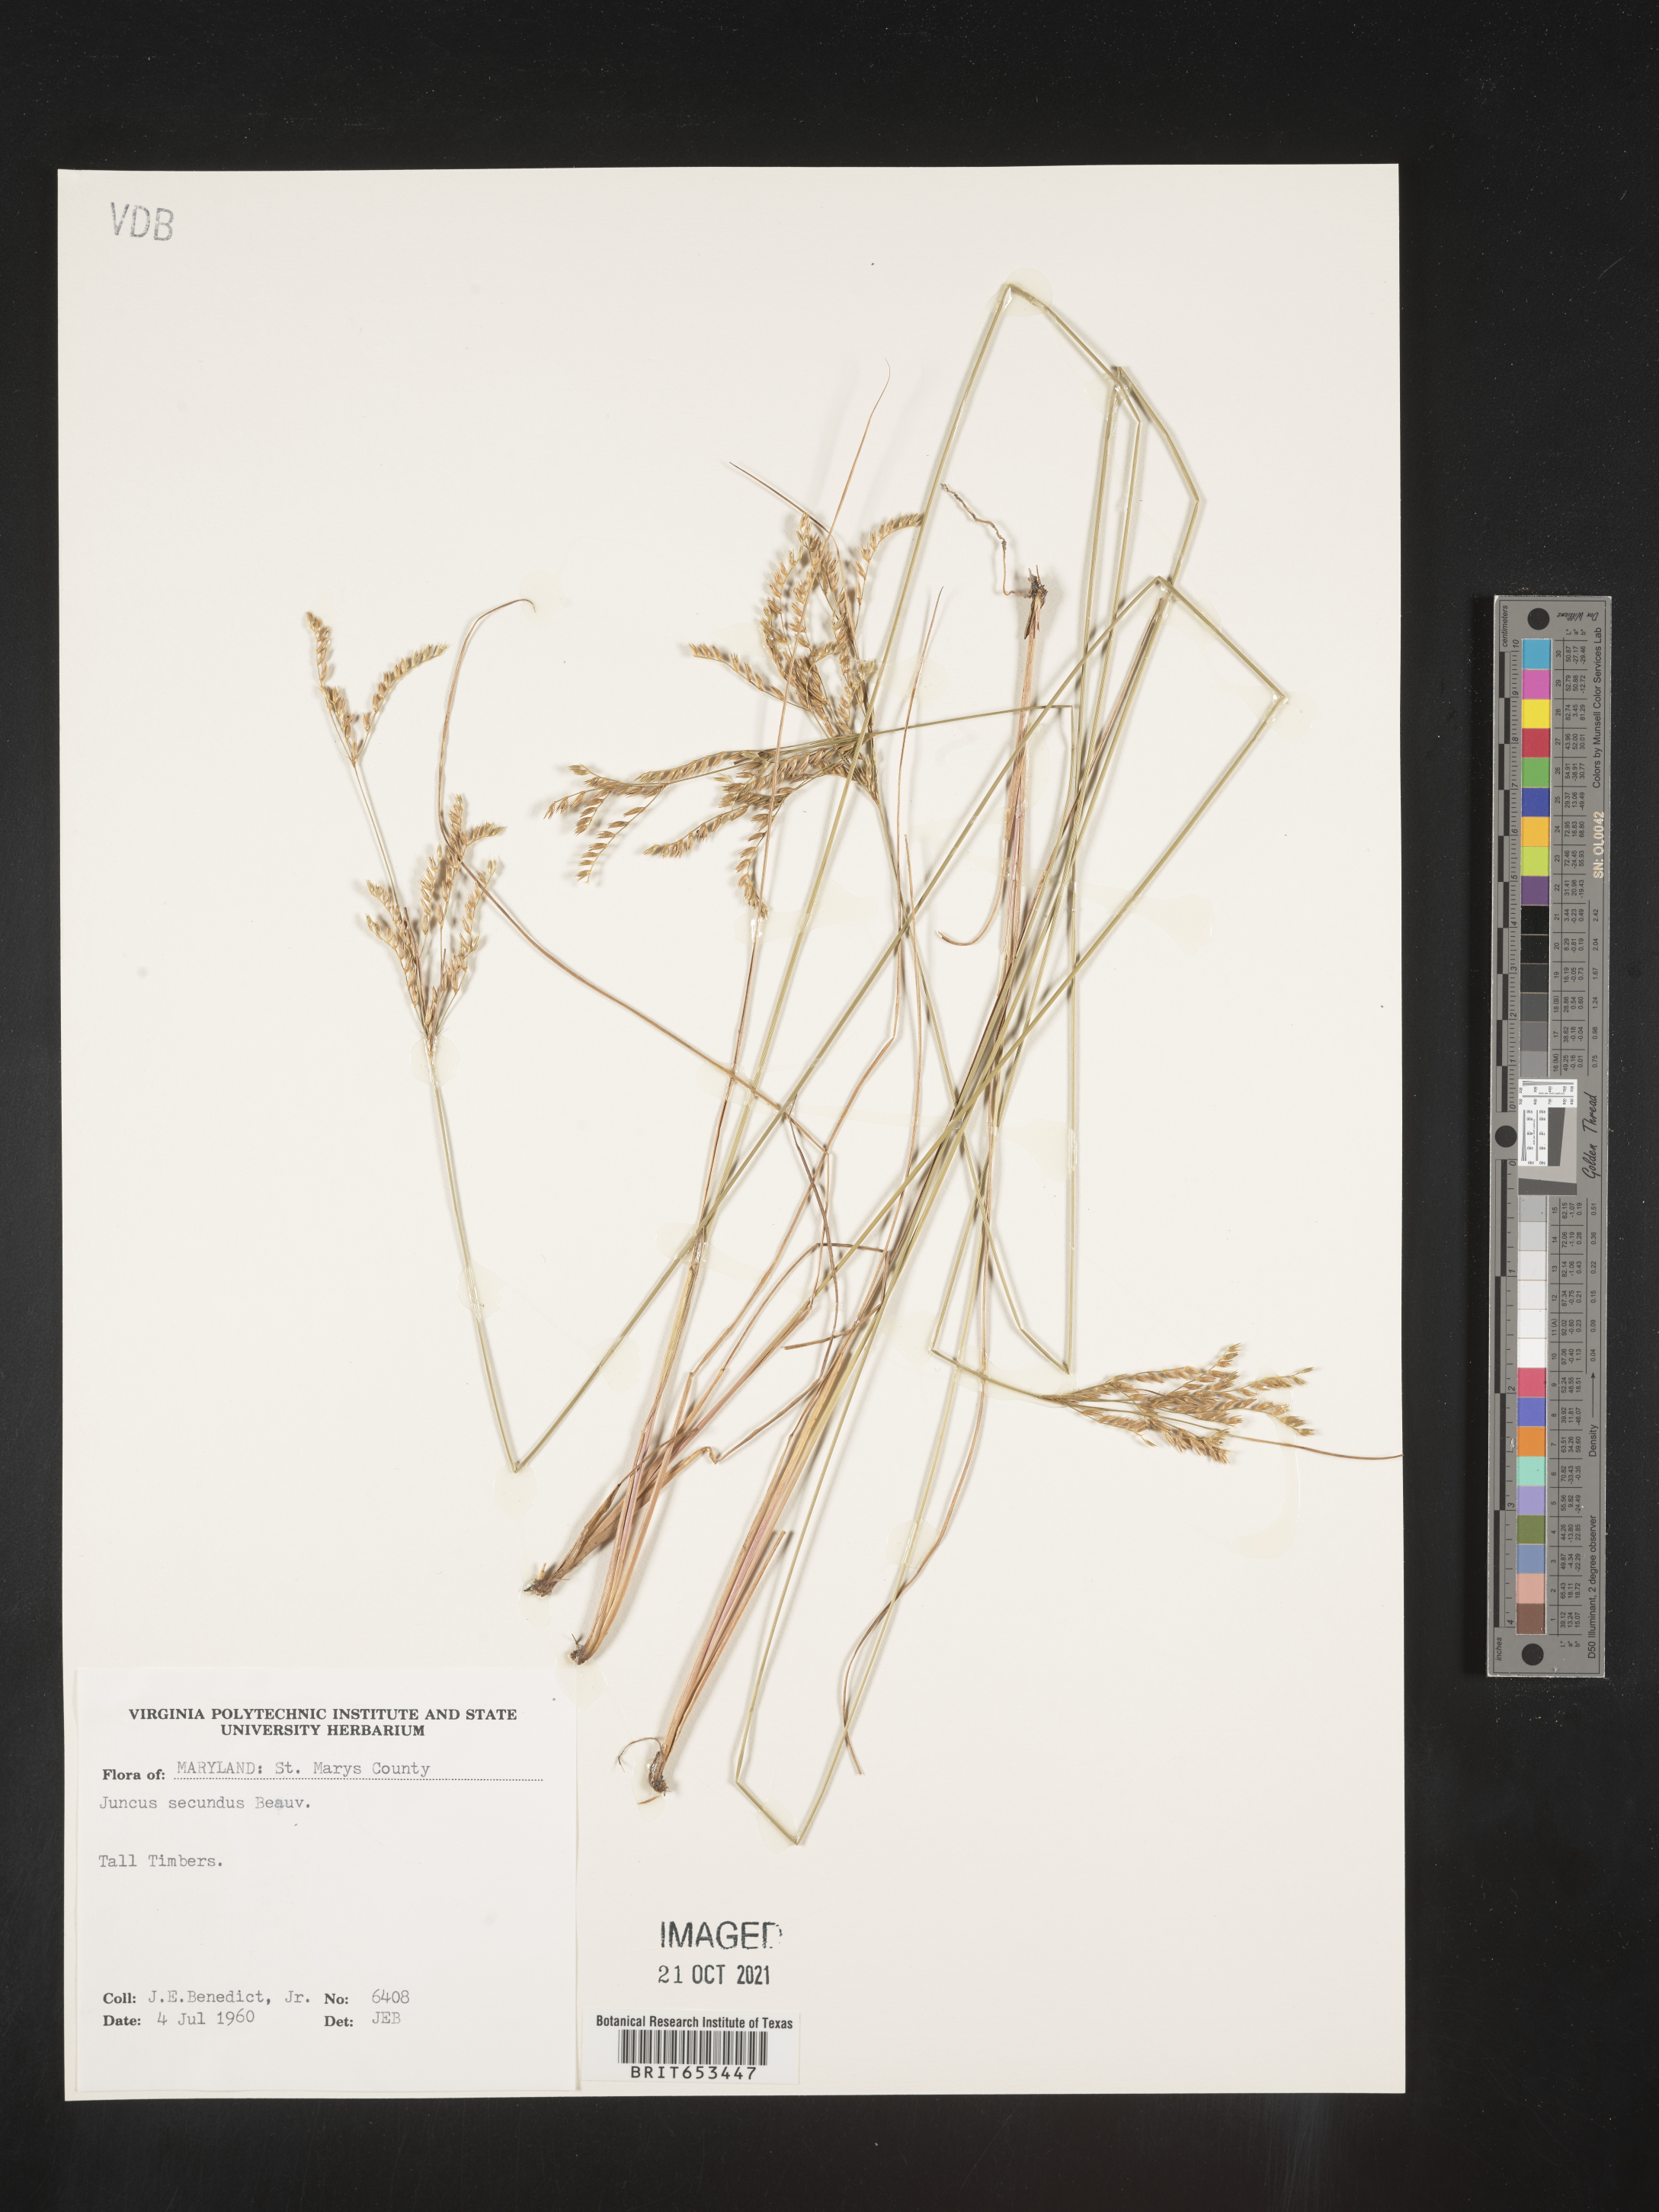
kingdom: Plantae
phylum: Tracheophyta
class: Liliopsida
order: Poales
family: Juncaceae
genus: Juncus
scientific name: Juncus secundus
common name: Lopsided rush
